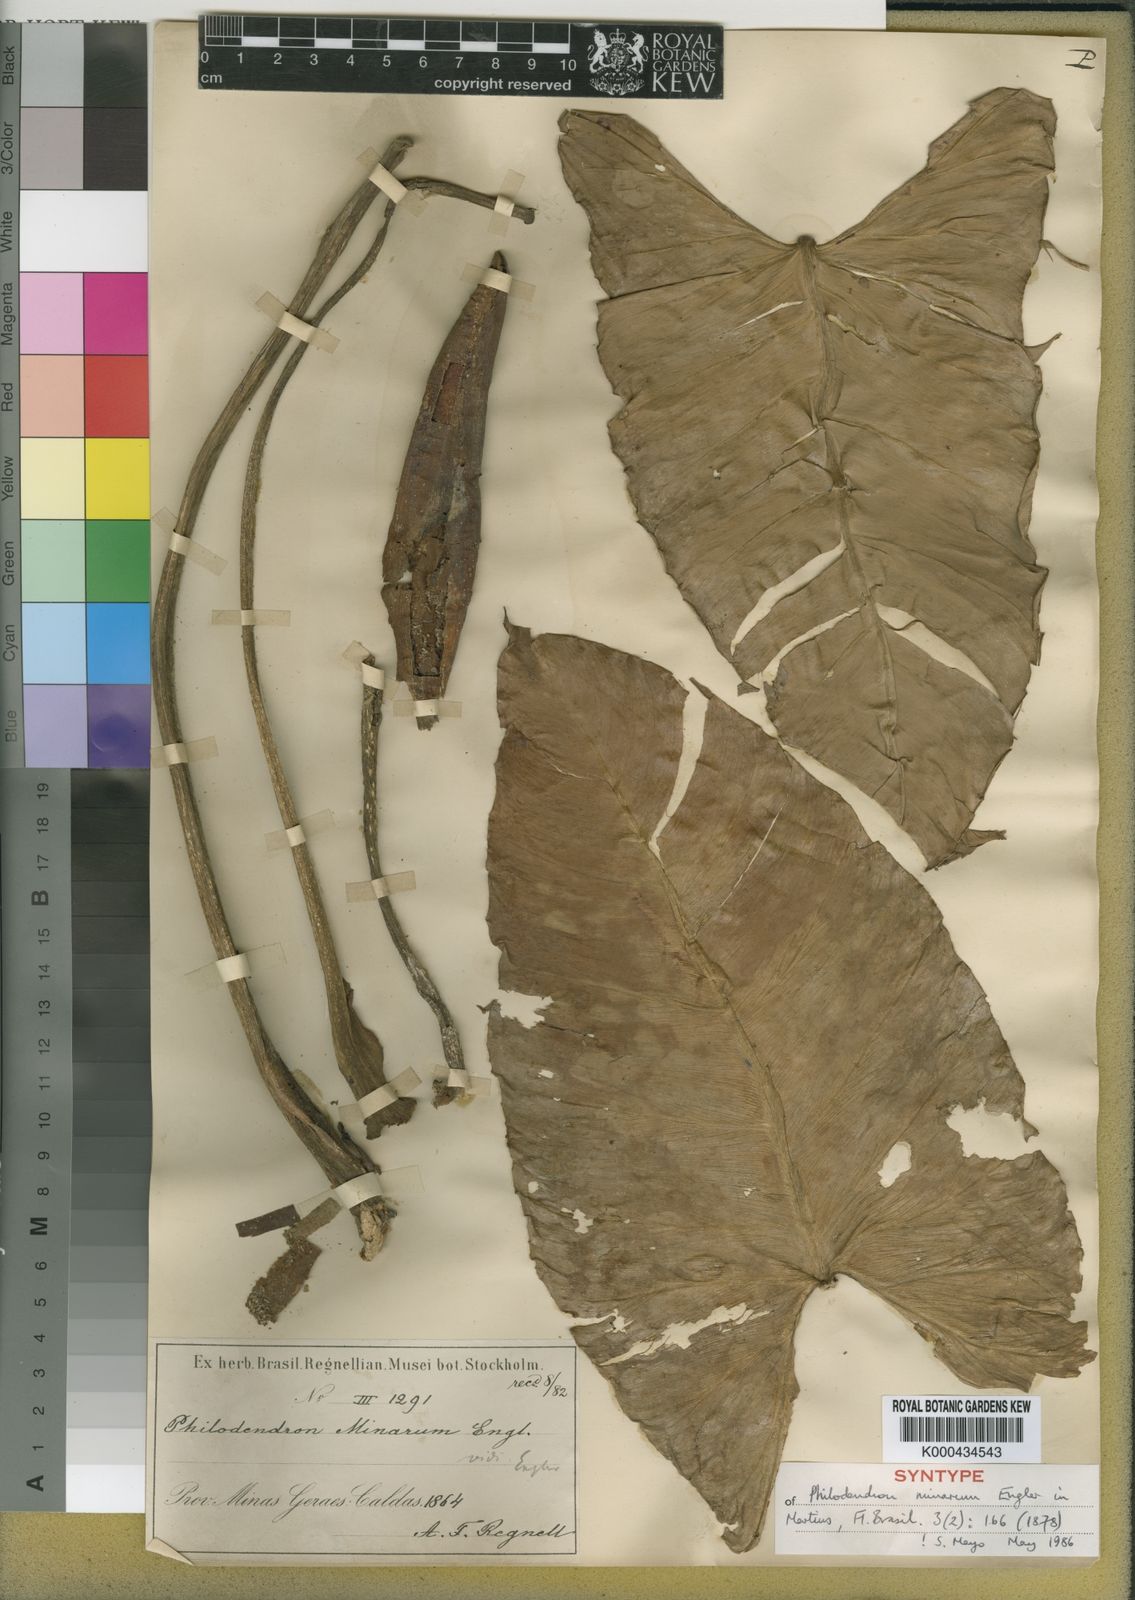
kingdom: Plantae
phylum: Tracheophyta
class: Liliopsida
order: Alismatales
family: Araceae
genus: Philodendron
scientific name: Philodendron minarum
